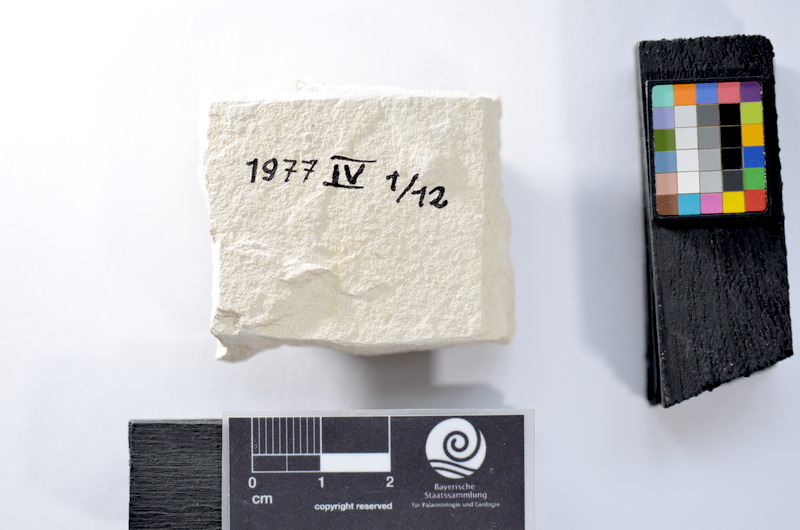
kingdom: Animalia
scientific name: Animalia
